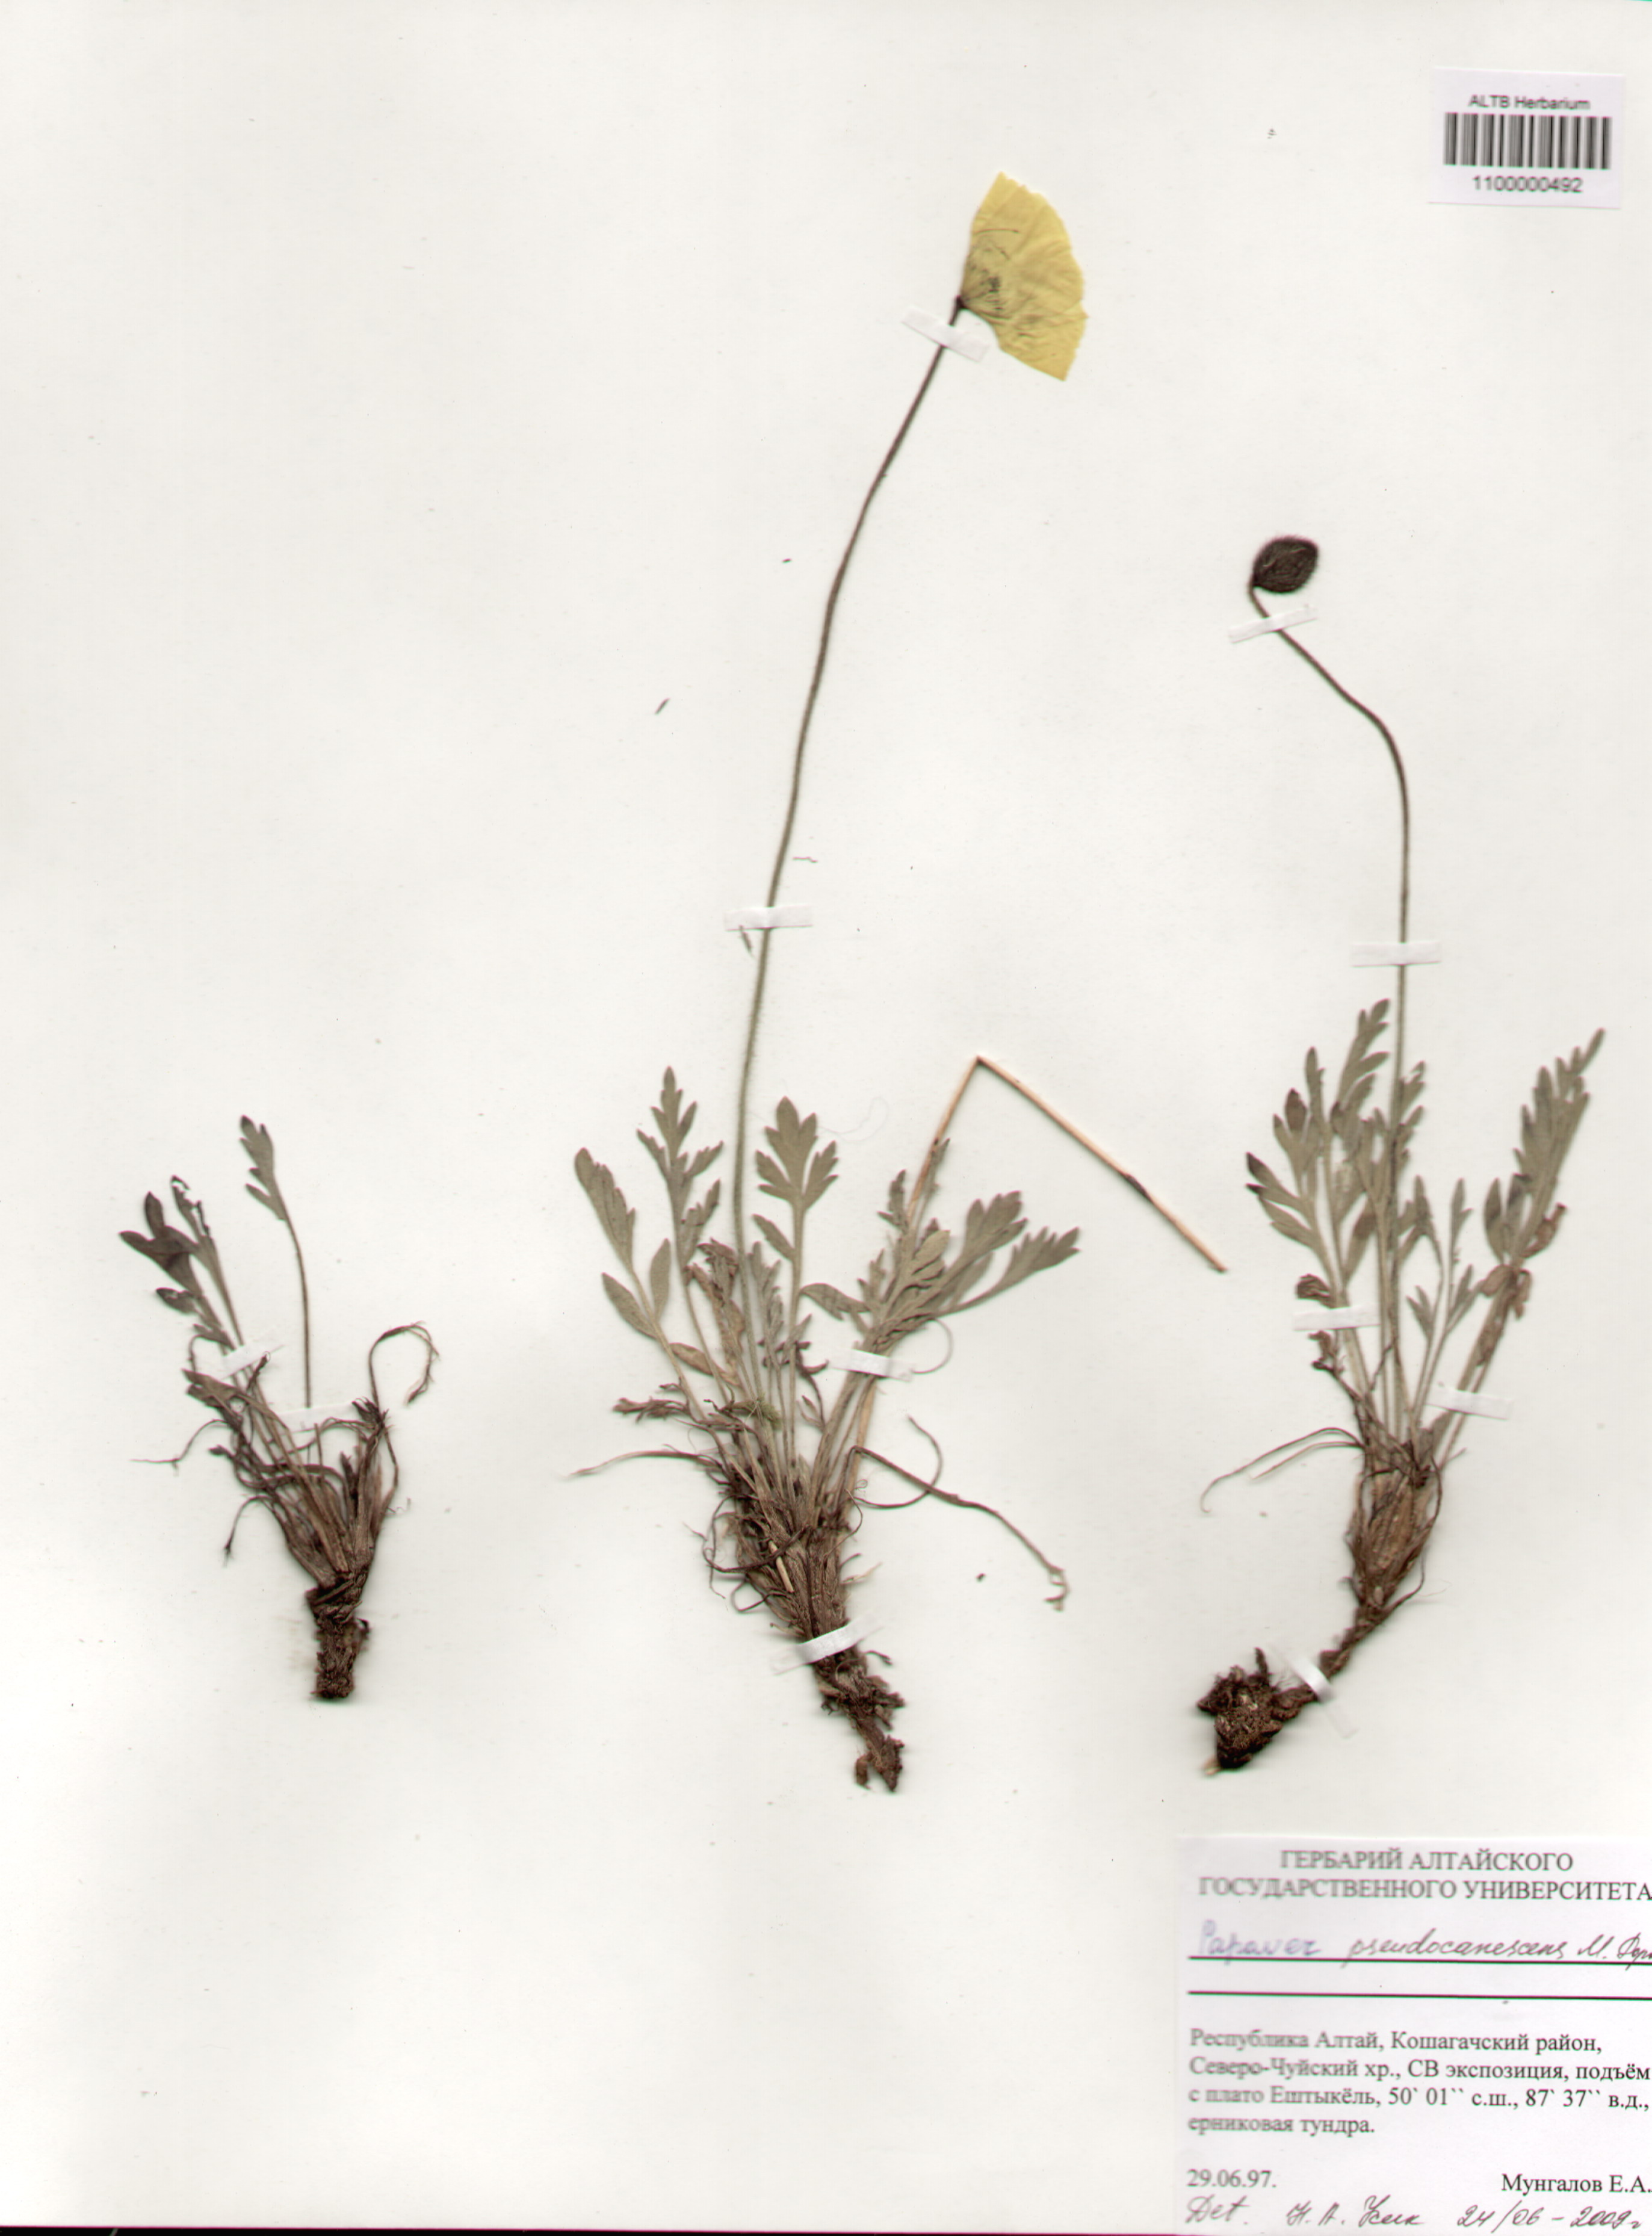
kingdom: Plantae
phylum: Tracheophyta
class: Magnoliopsida
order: Ranunculales
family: Papaveraceae
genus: Papaver
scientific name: Papaver canescens
